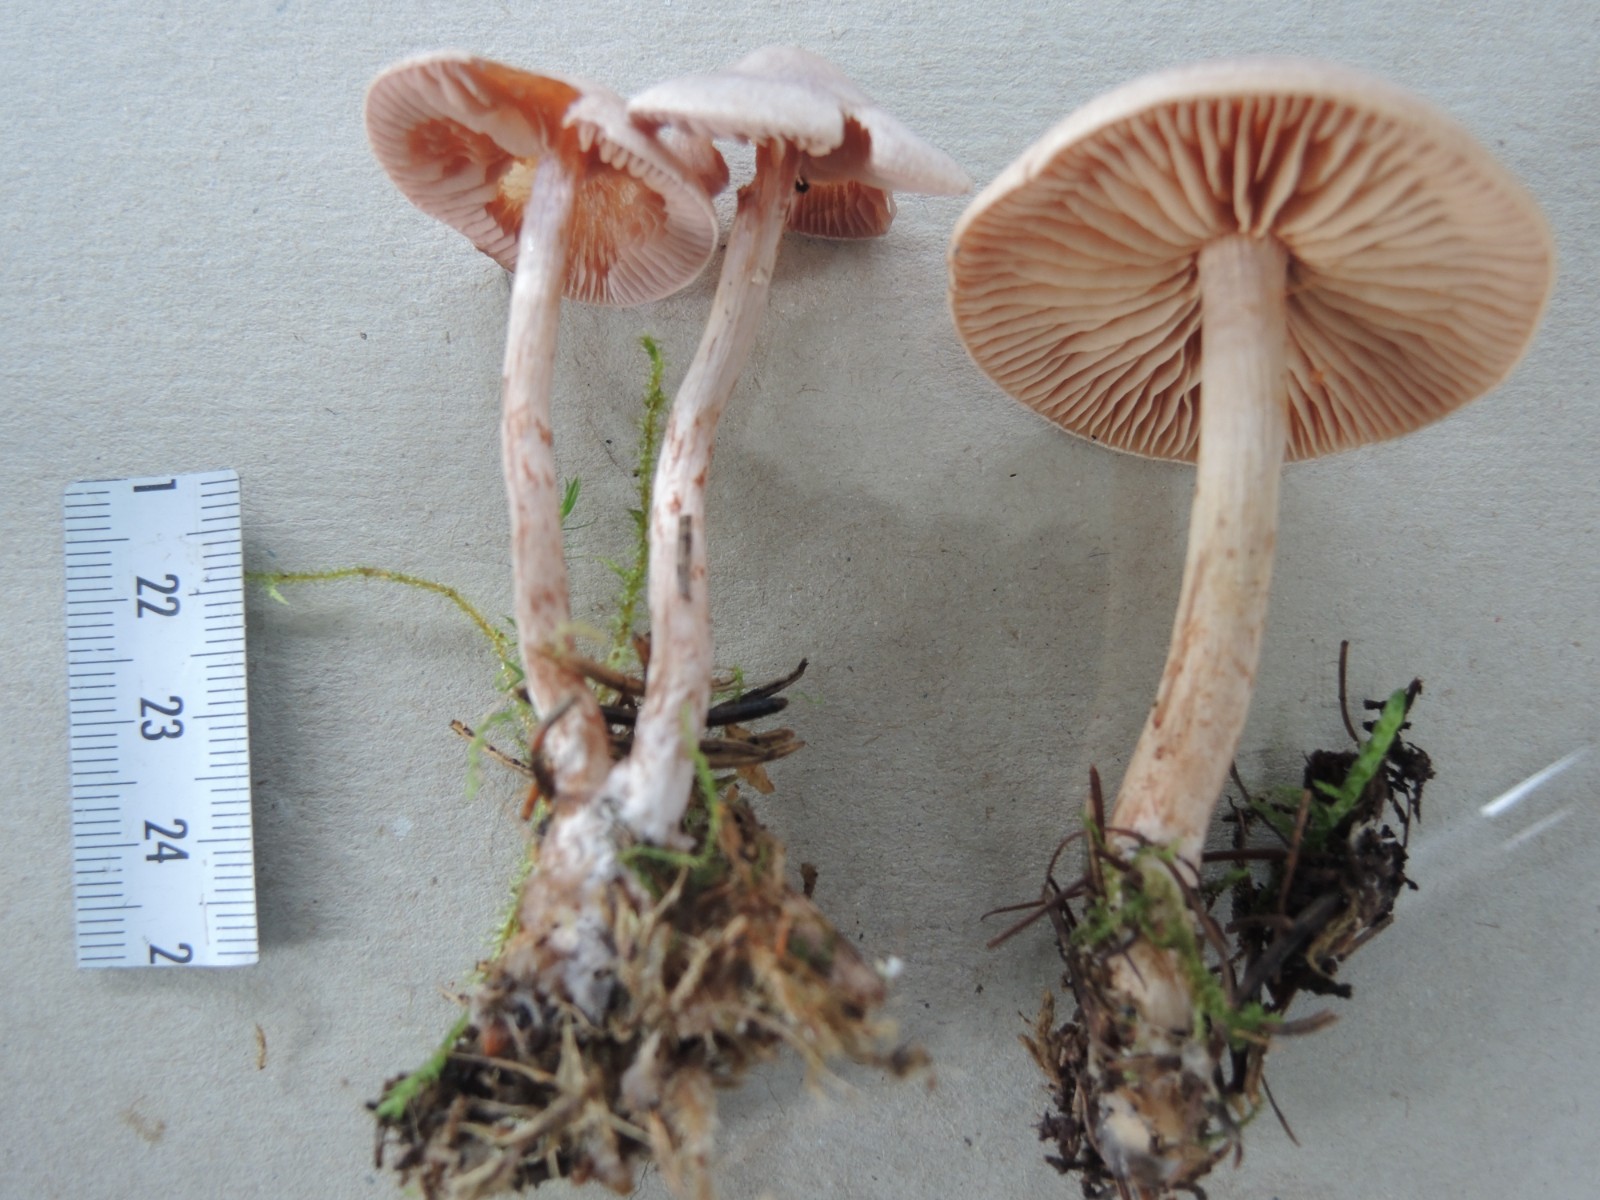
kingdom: Fungi
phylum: Basidiomycota
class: Agaricomycetes
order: Agaricales
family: Cortinariaceae
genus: Cortinarius
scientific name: Cortinarius spilomeus
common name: rødfnugget slørhat
